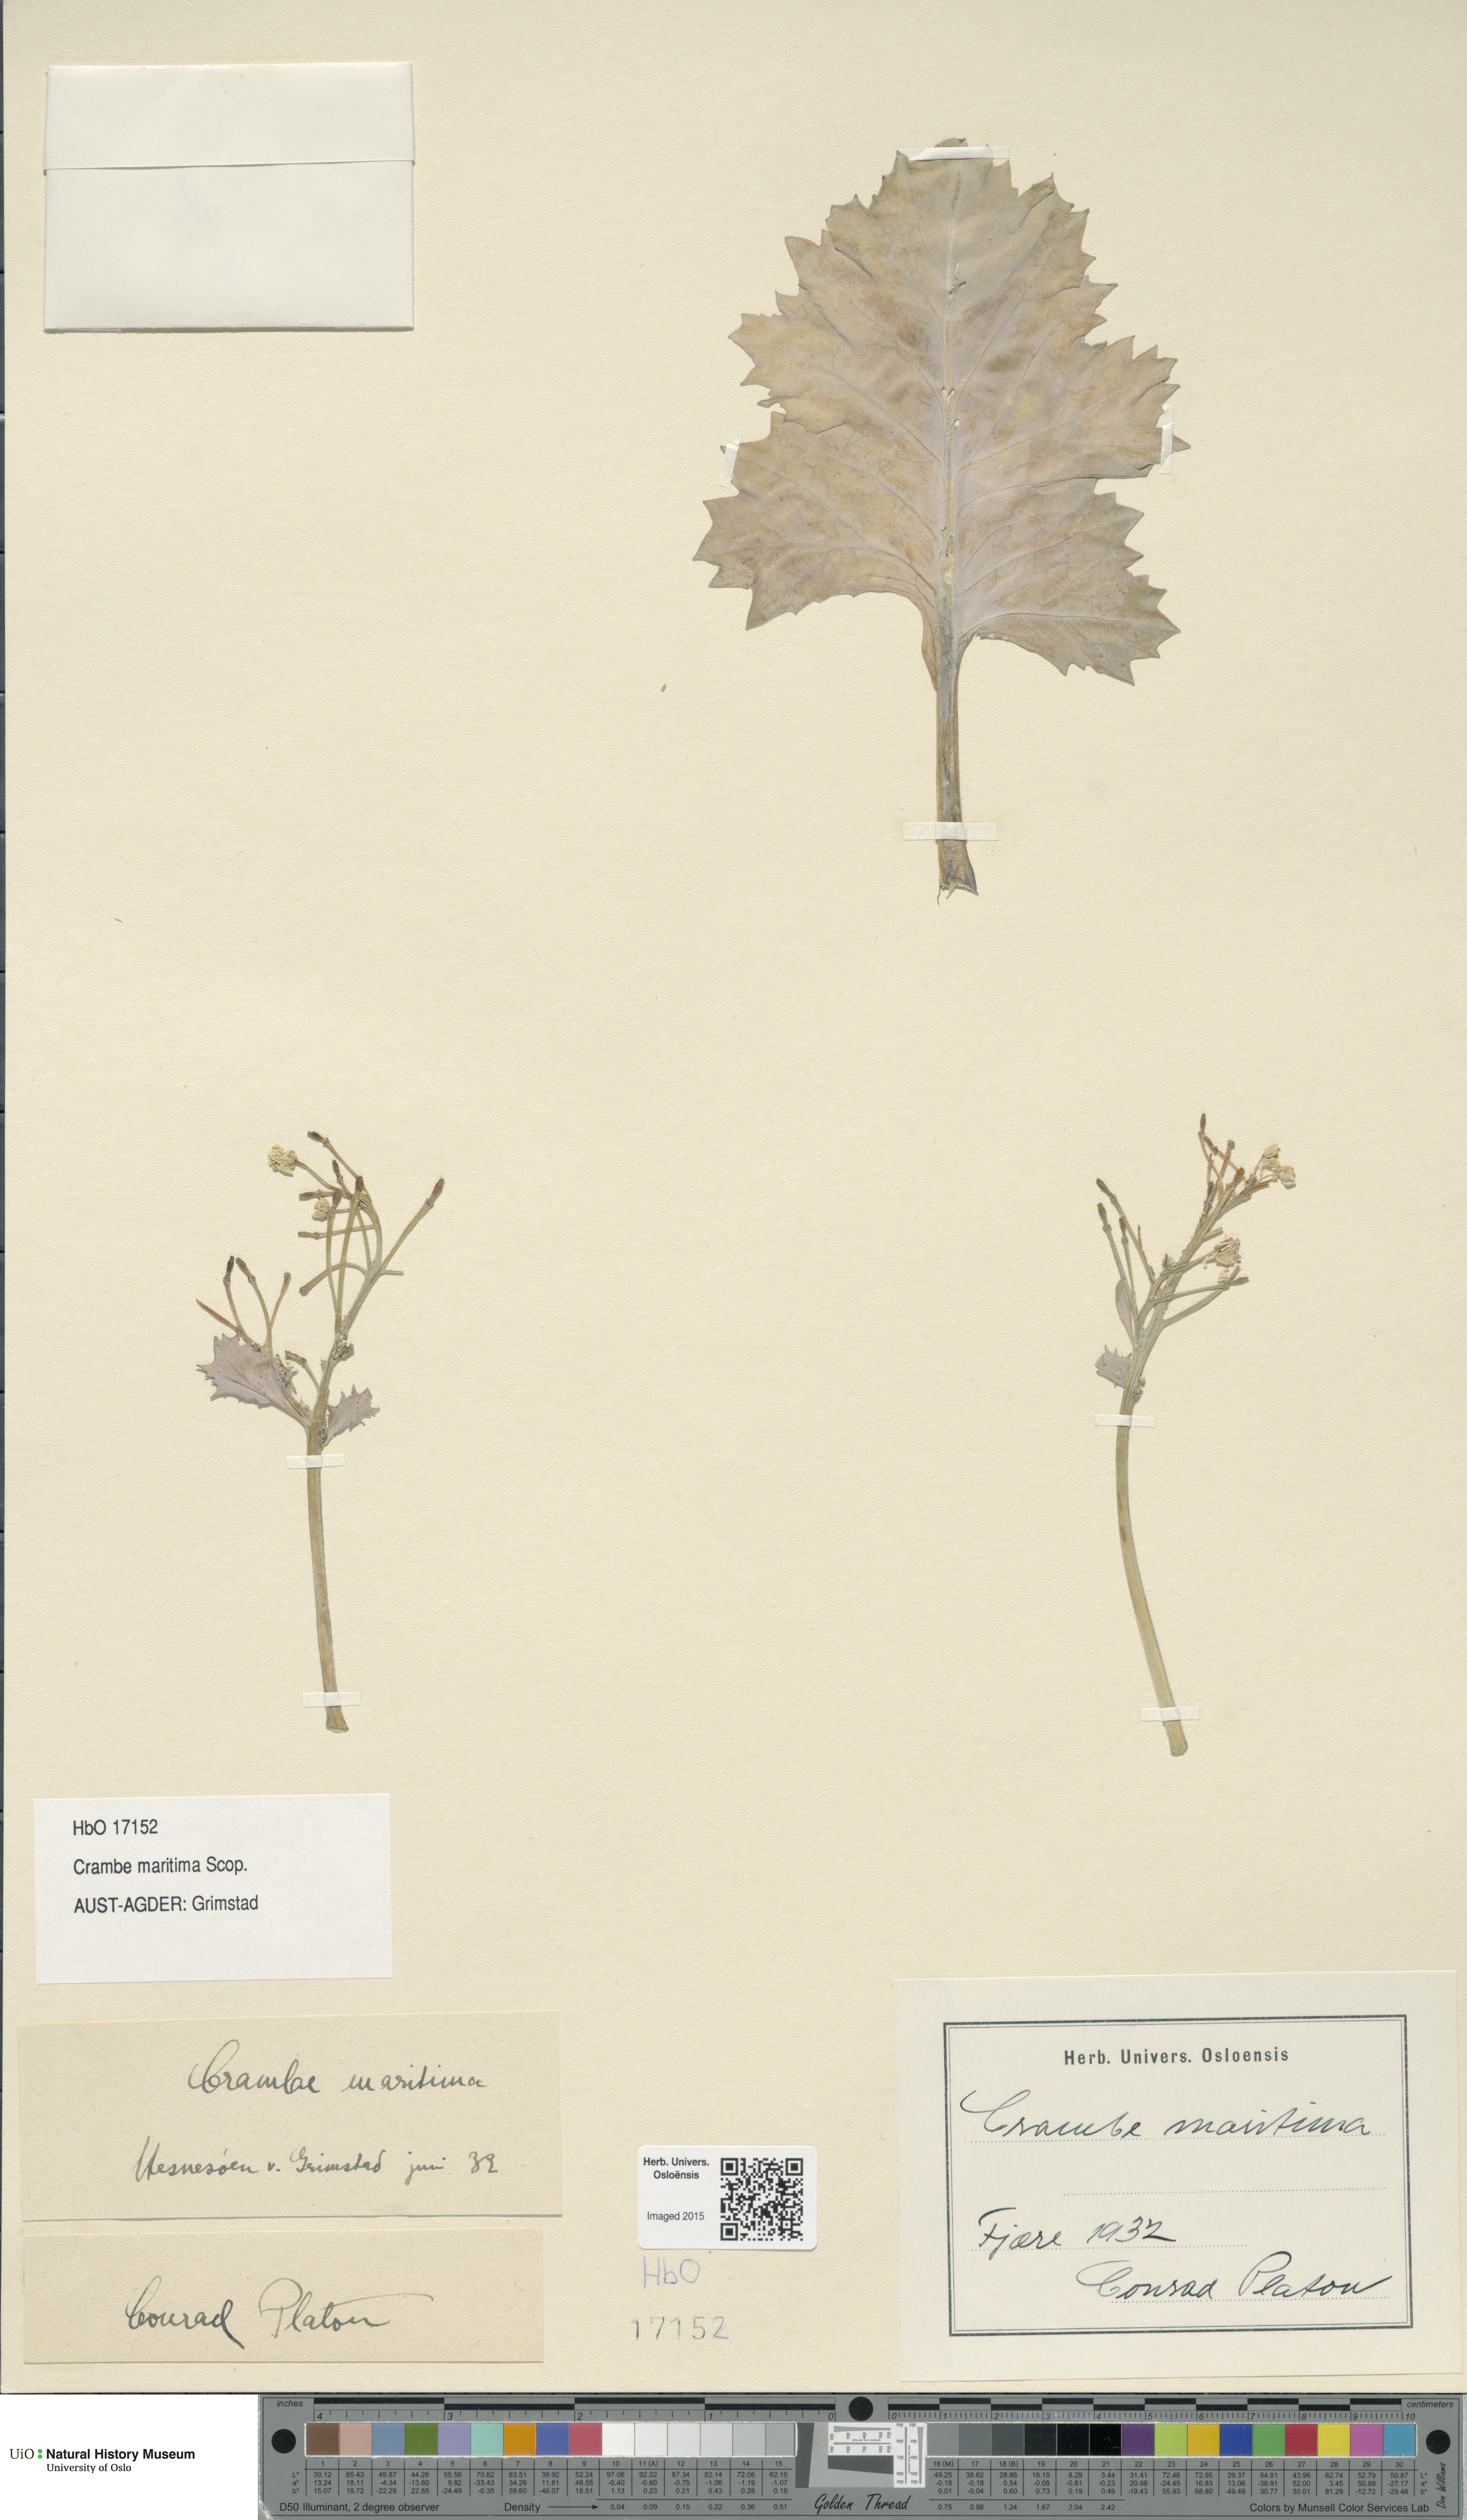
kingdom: Plantae
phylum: Tracheophyta
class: Magnoliopsida
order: Brassicales
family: Brassicaceae
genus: Crambe
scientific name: Crambe maritima
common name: Sea-kale
